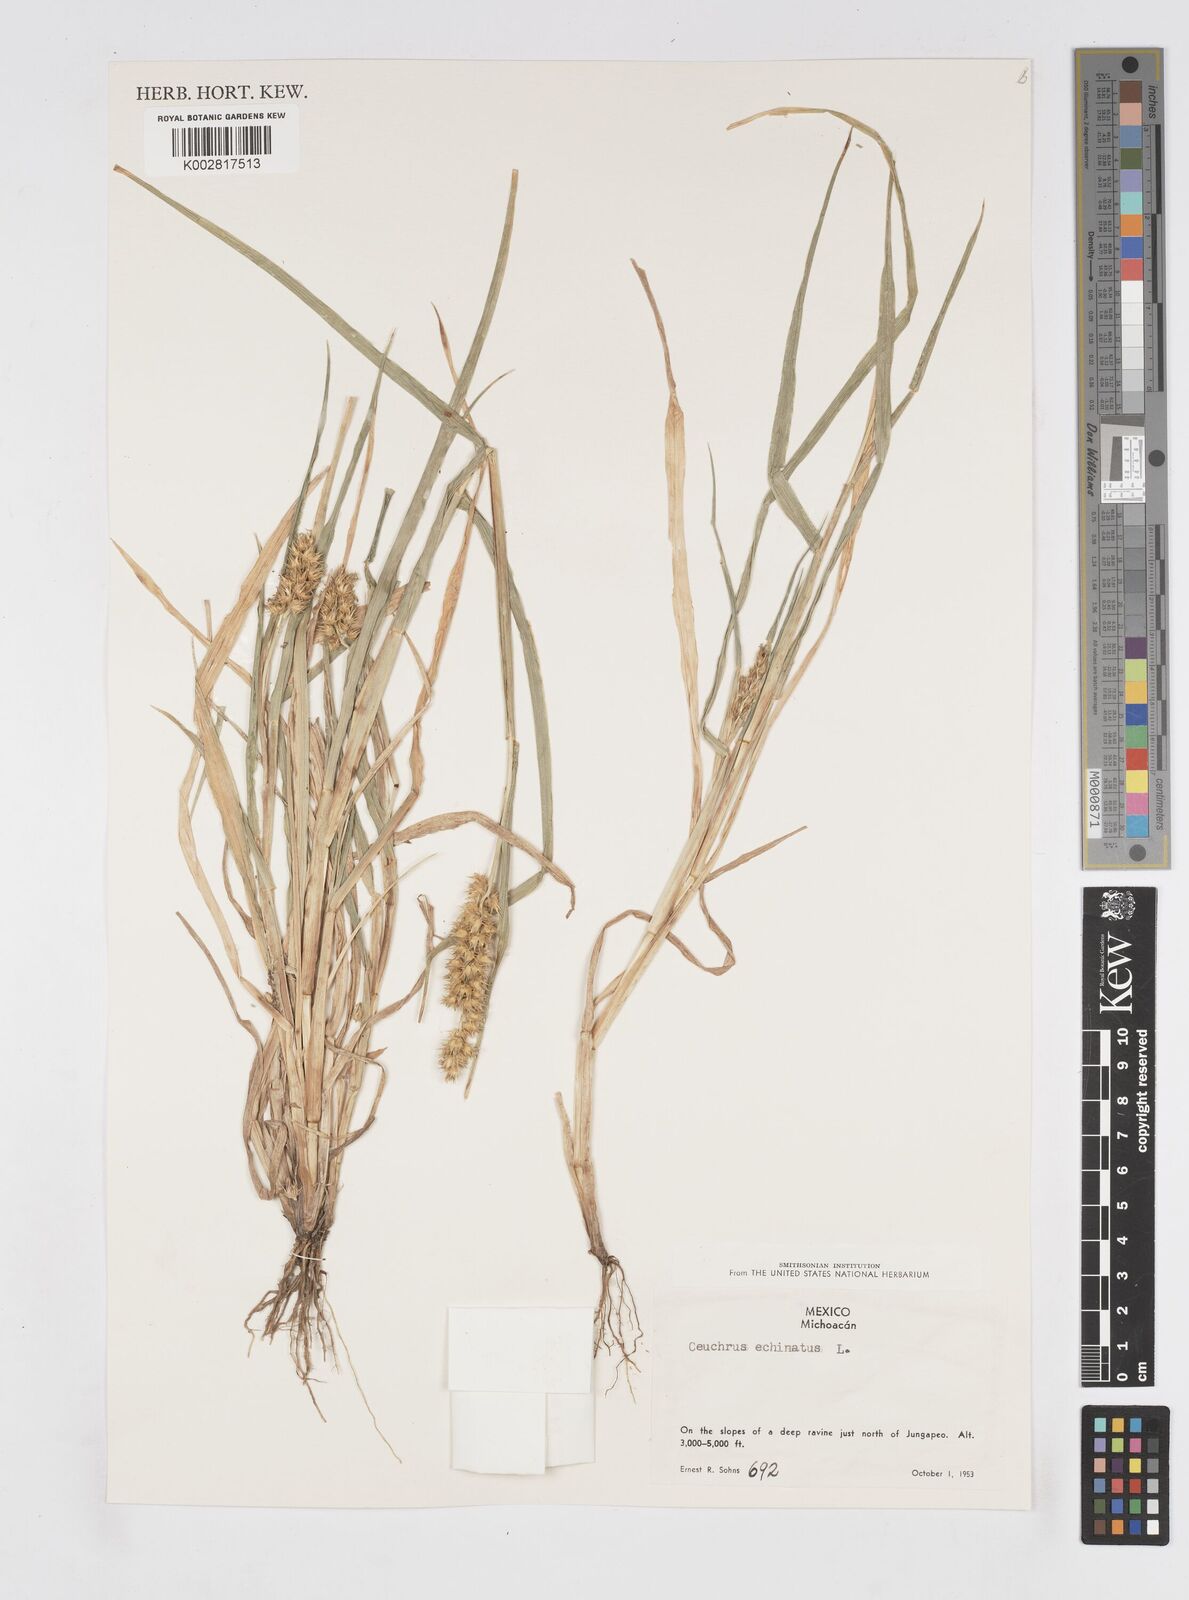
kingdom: Plantae
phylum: Tracheophyta
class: Liliopsida
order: Poales
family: Poaceae
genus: Cenchrus
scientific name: Cenchrus
